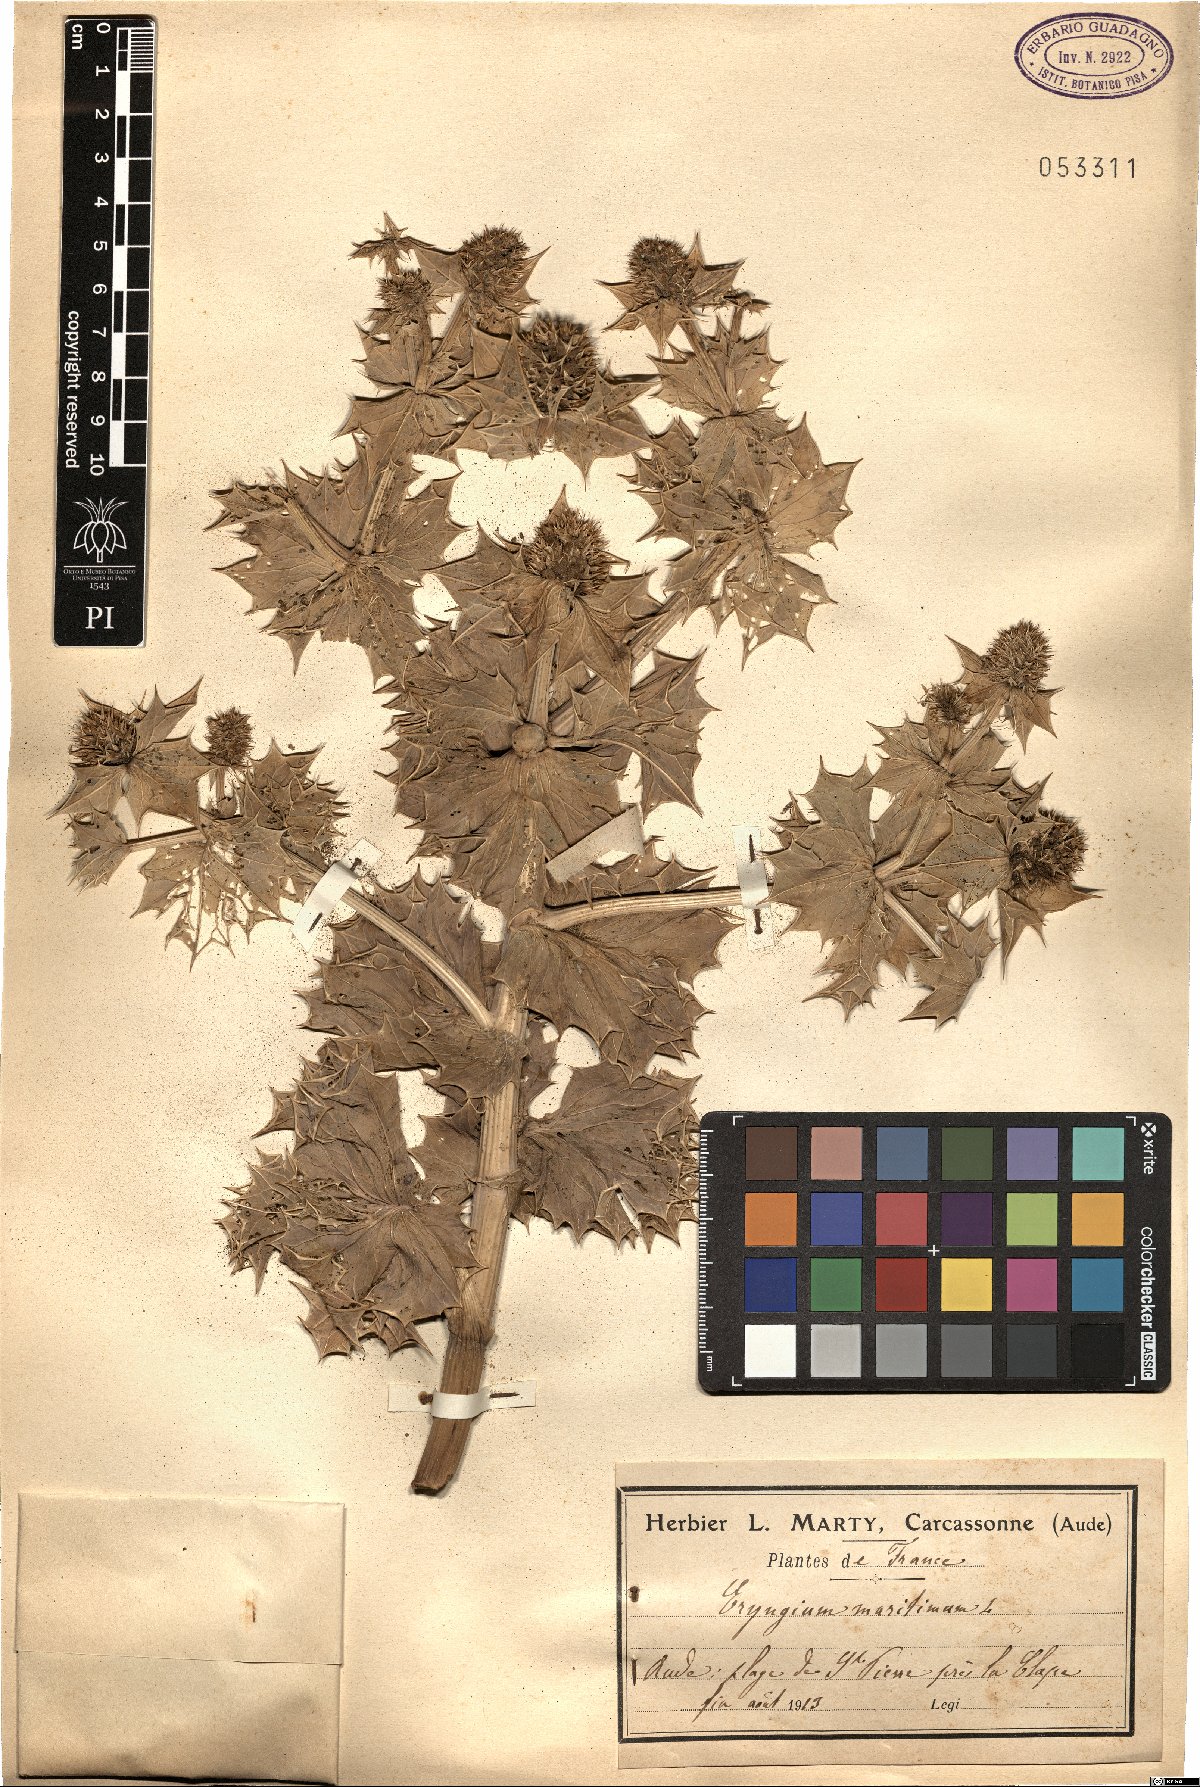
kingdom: Plantae
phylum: Tracheophyta
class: Magnoliopsida
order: Apiales
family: Apiaceae
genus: Eryngium
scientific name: Eryngium maritimum
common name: Sea-holly
